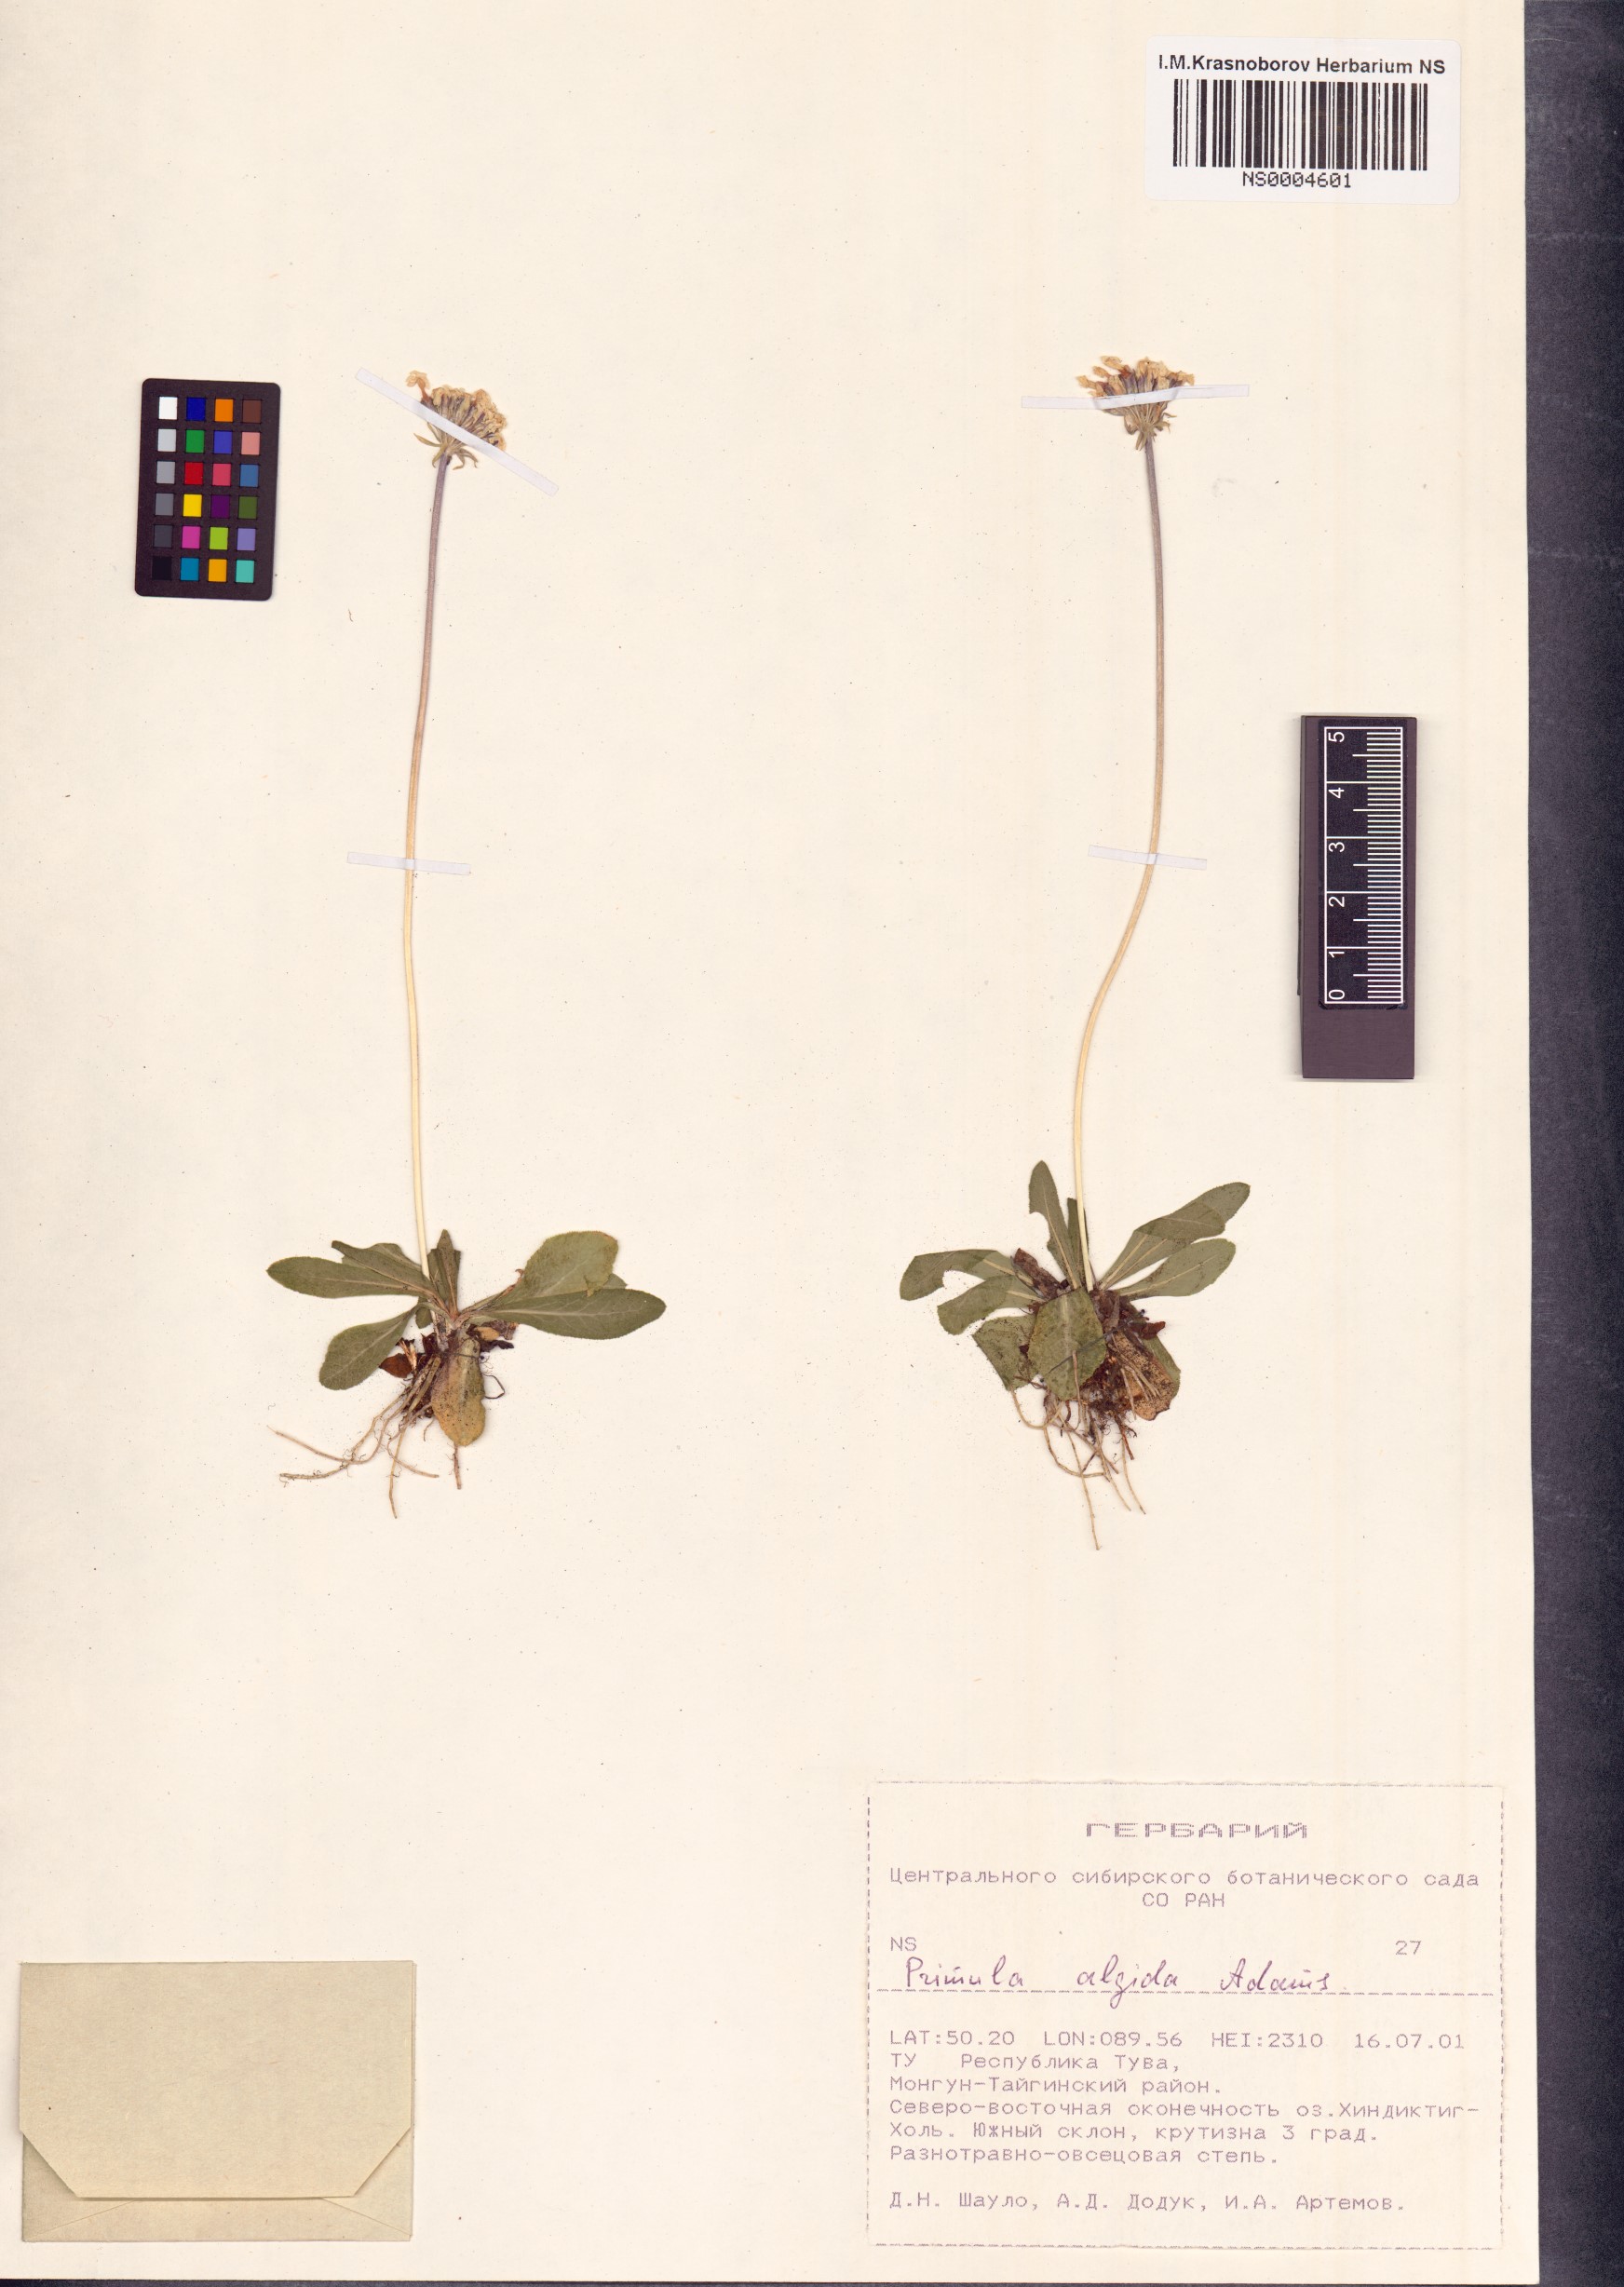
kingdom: Plantae
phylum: Tracheophyta
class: Magnoliopsida
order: Ericales
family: Primulaceae
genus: Primula
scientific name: Primula algida
